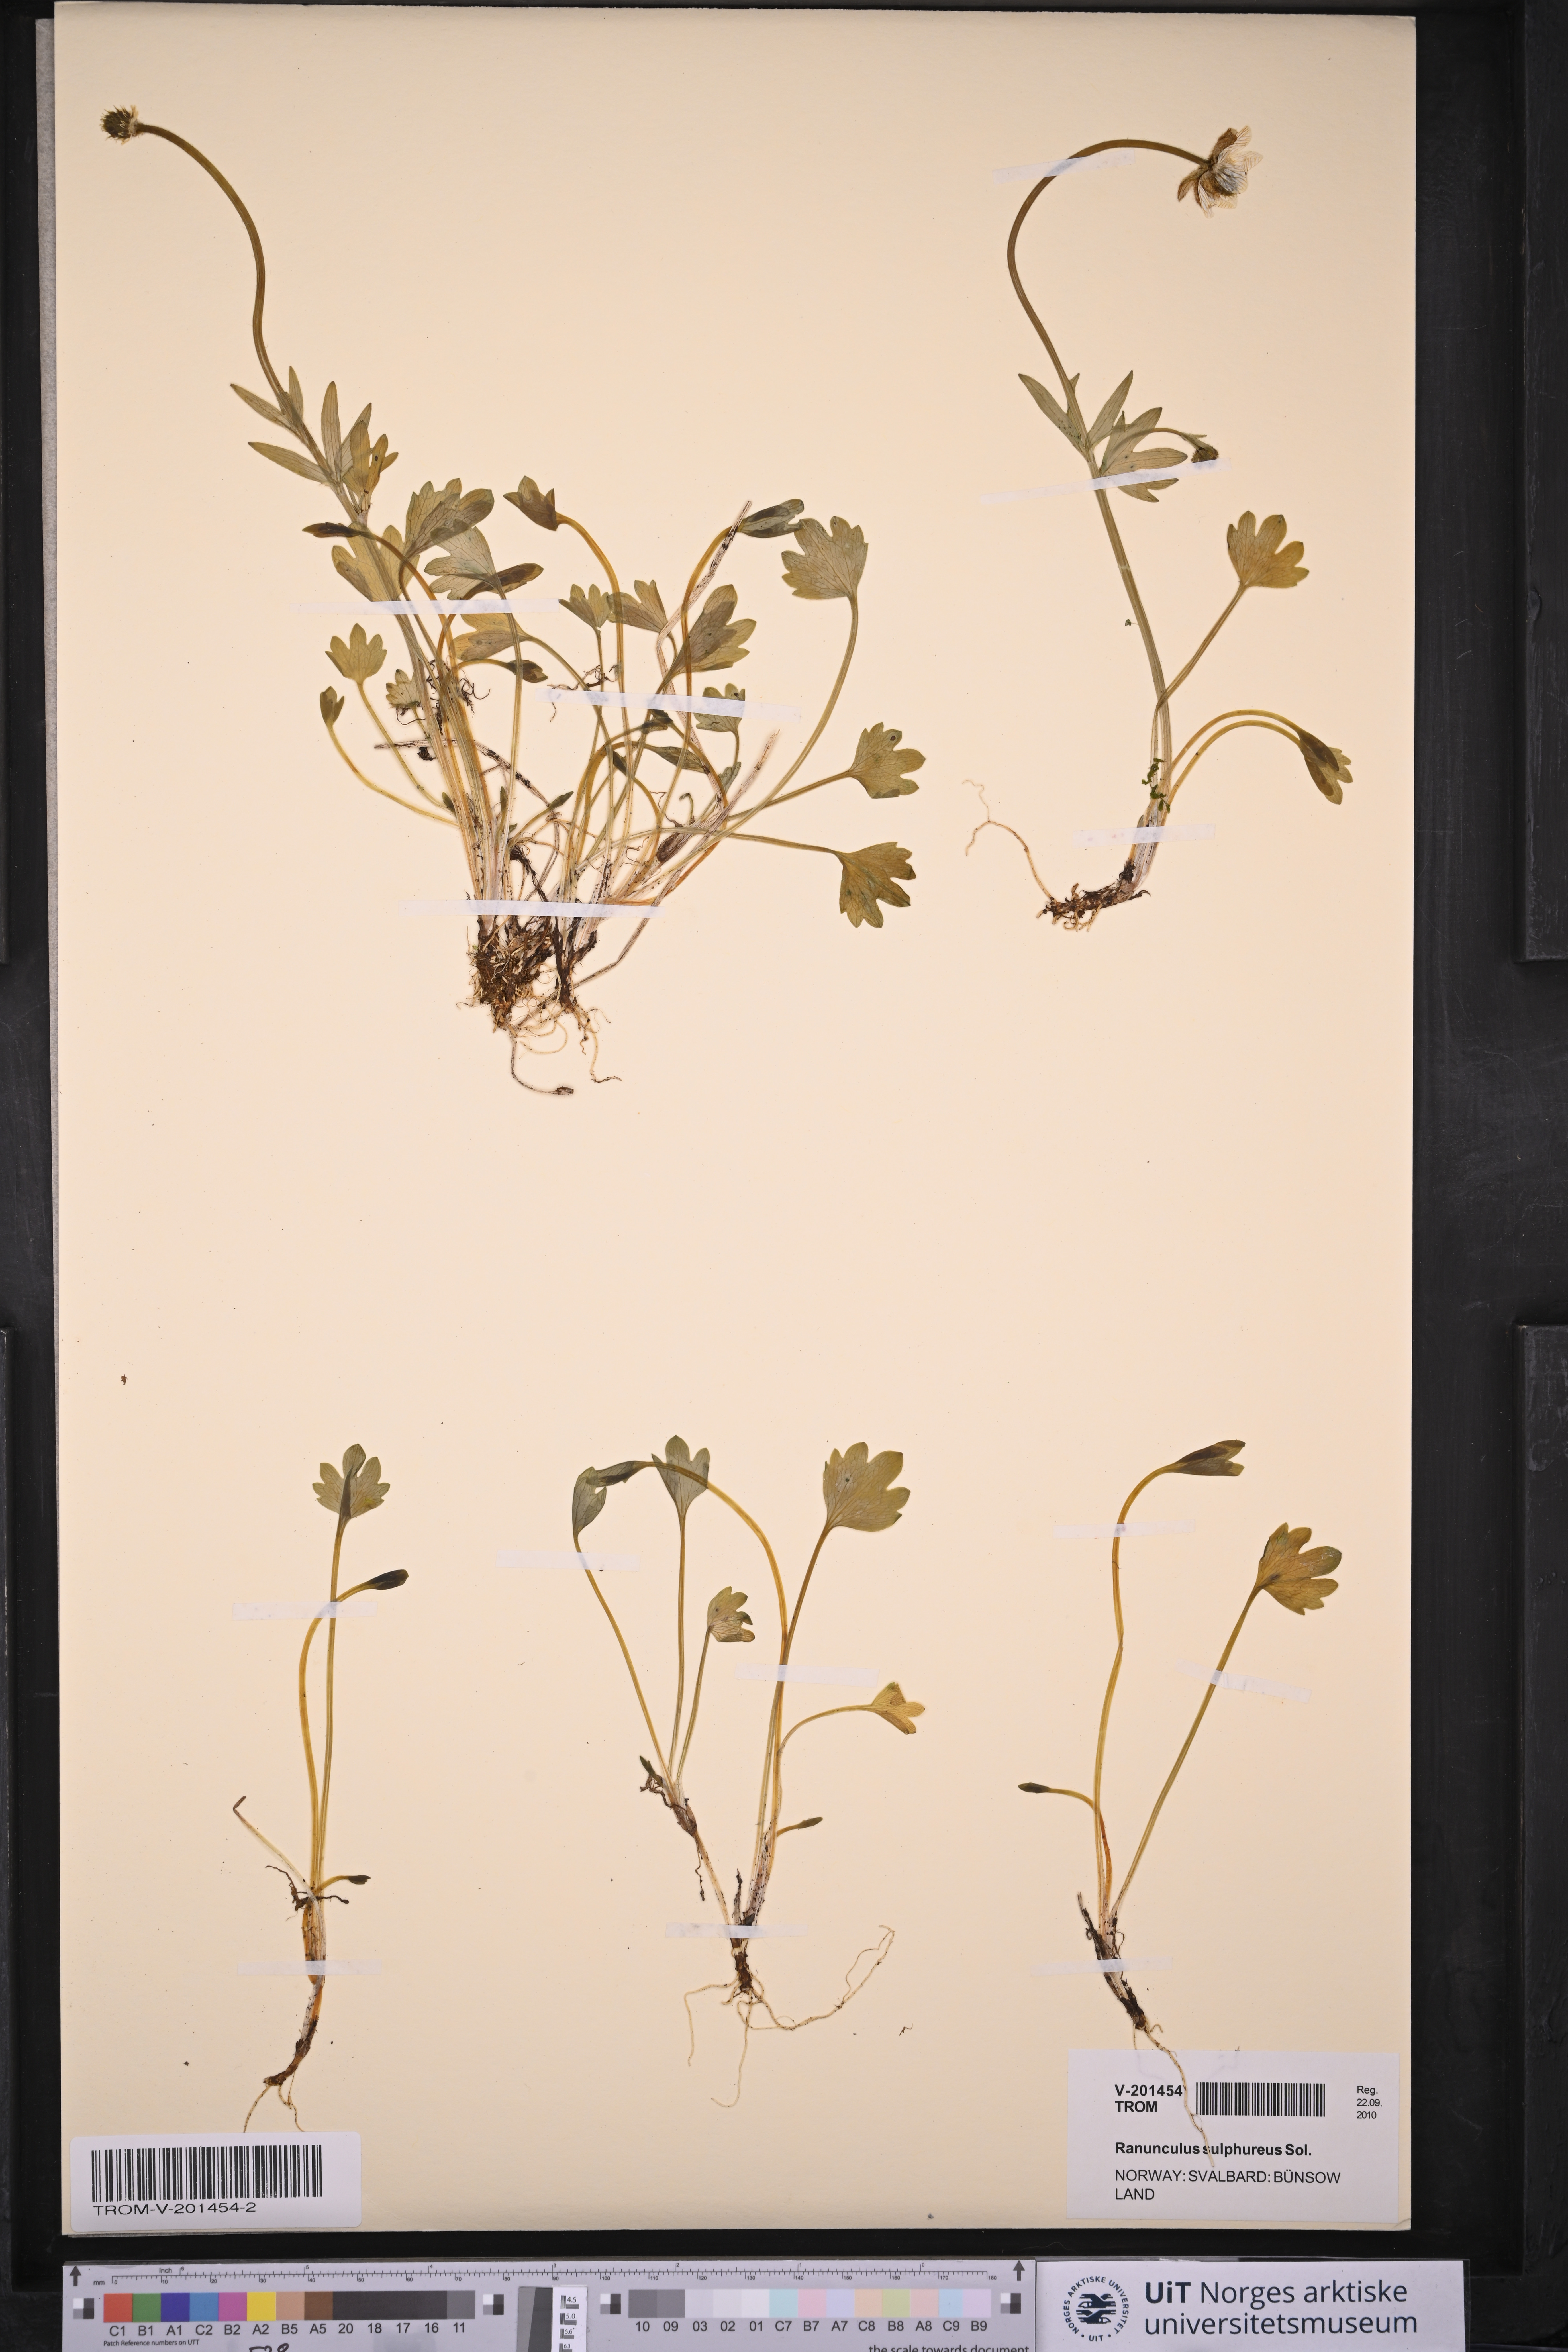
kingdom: Plantae
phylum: Tracheophyta
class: Magnoliopsida
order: Ranunculales
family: Ranunculaceae
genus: Ranunculus
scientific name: Ranunculus sulphureus
